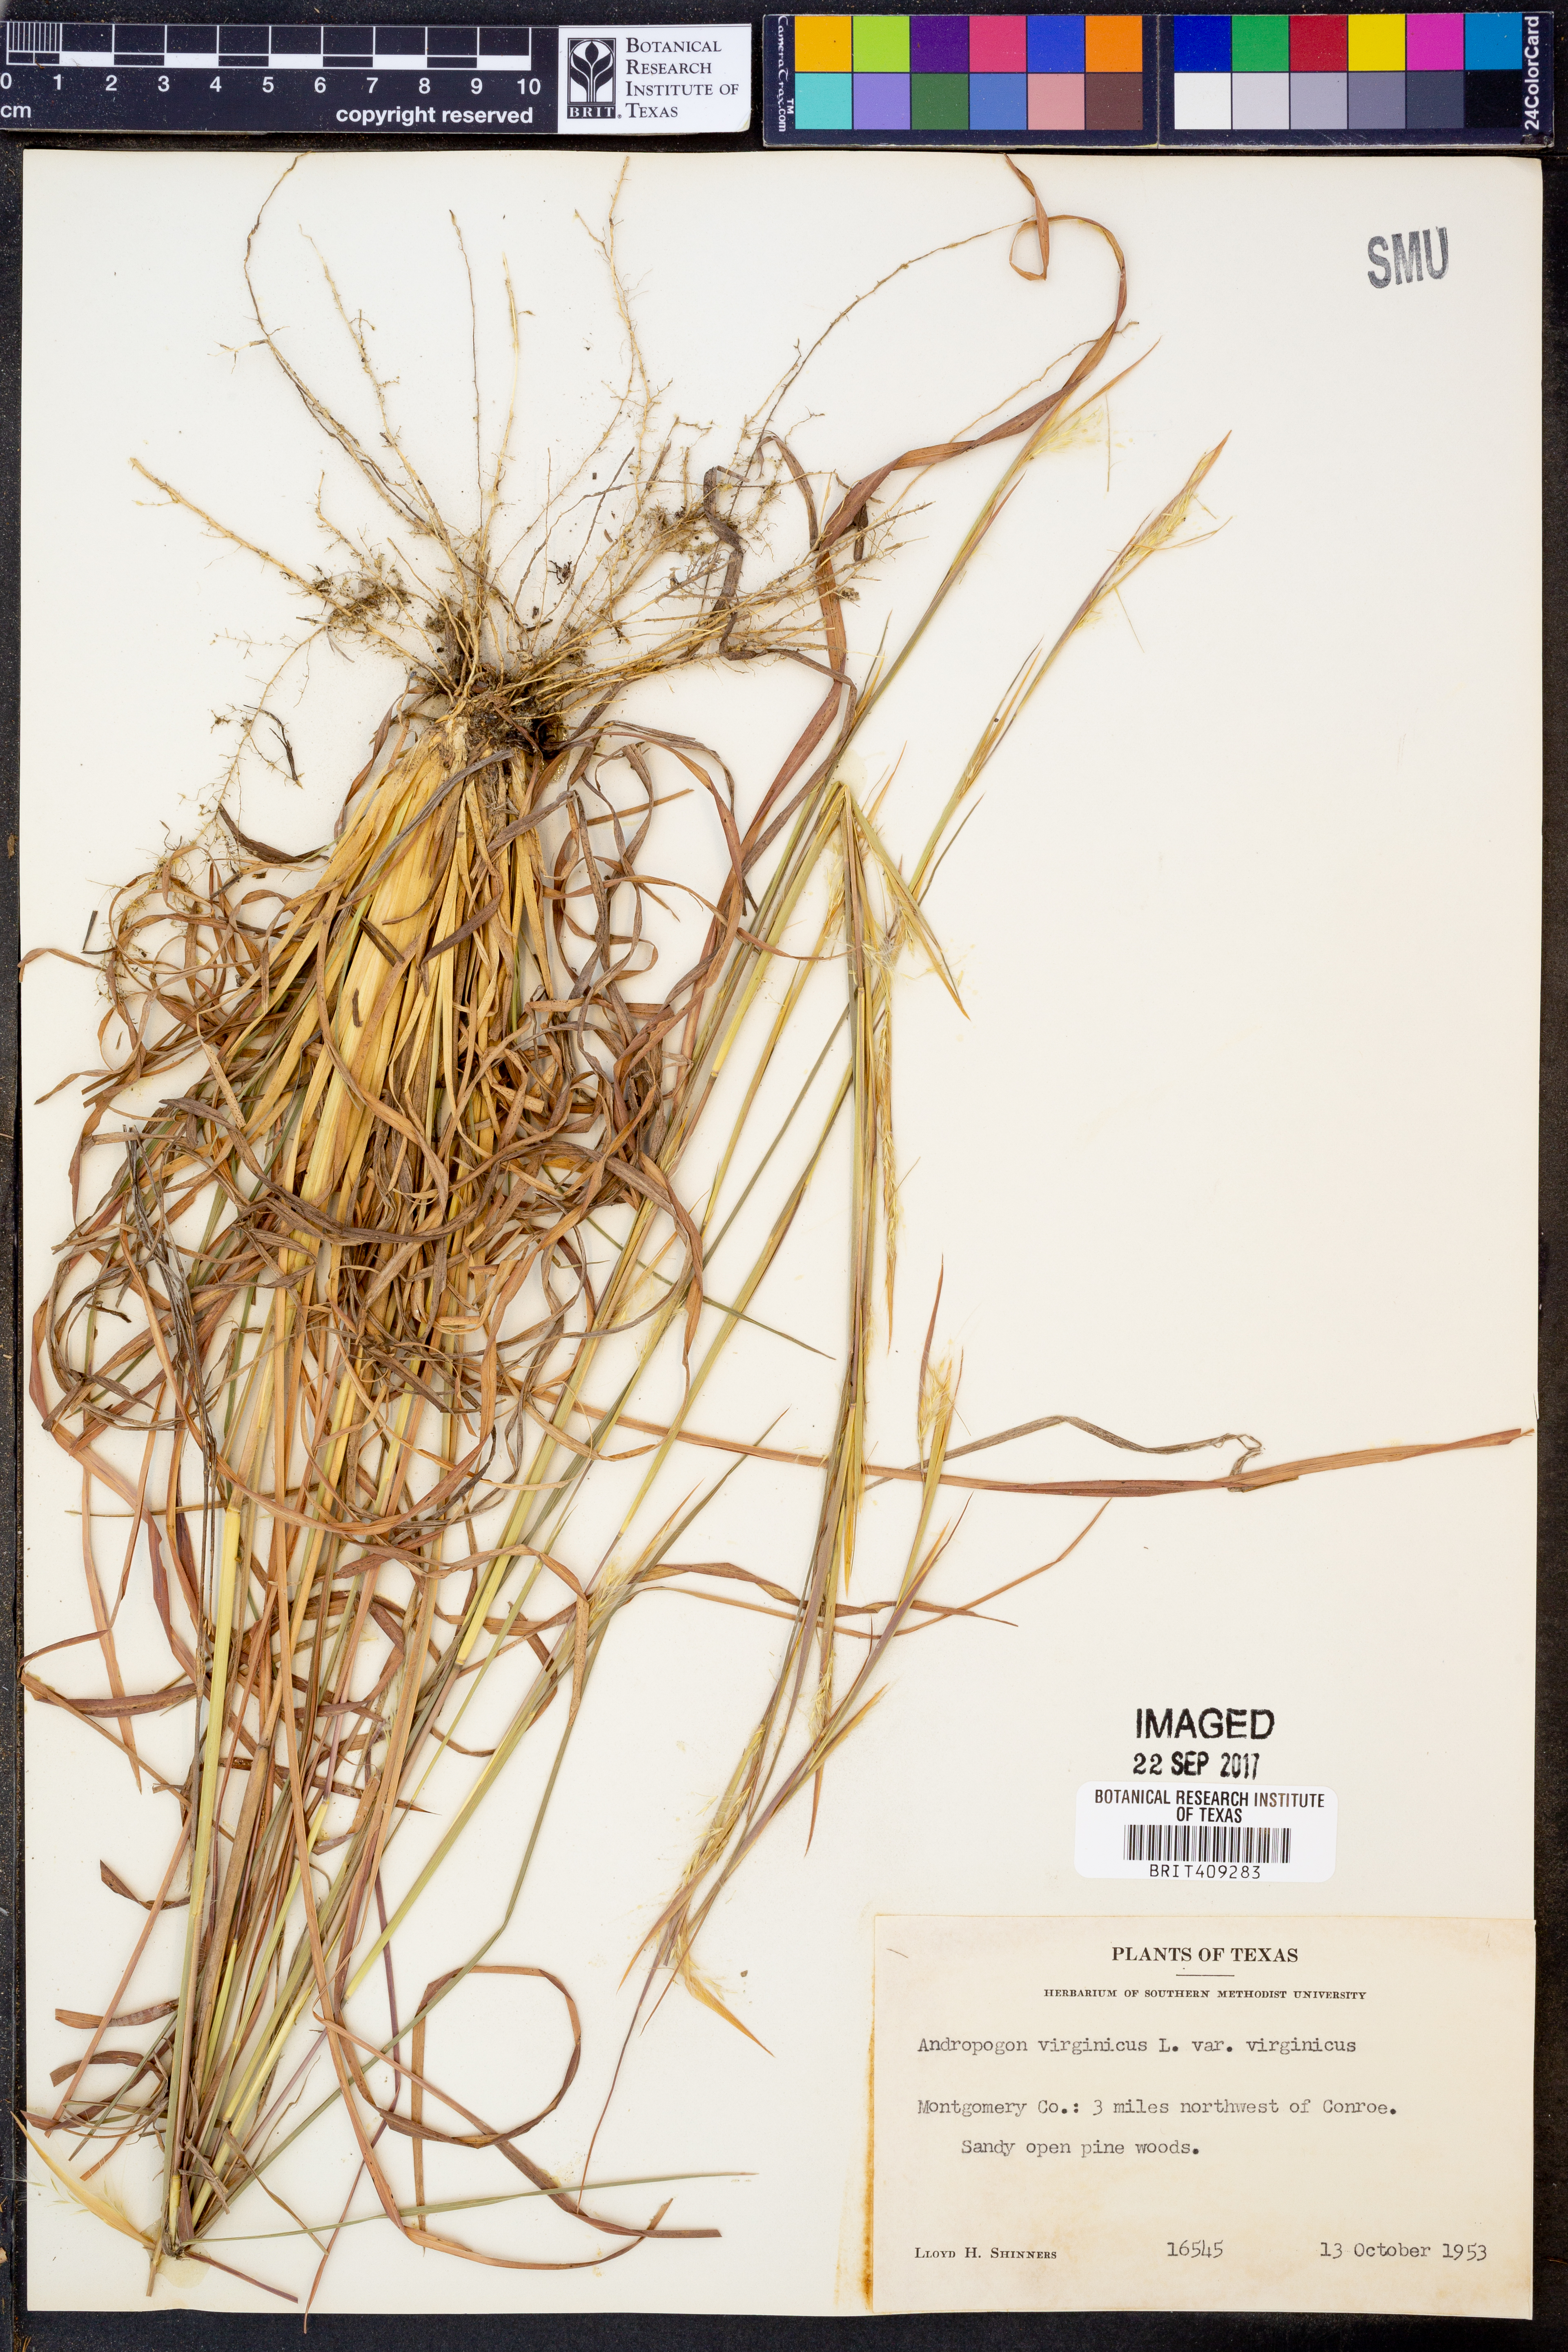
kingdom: Plantae
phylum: Tracheophyta
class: Liliopsida
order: Poales
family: Poaceae
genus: Andropogon
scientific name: Andropogon virginicus
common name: Broomsedge bluestem
